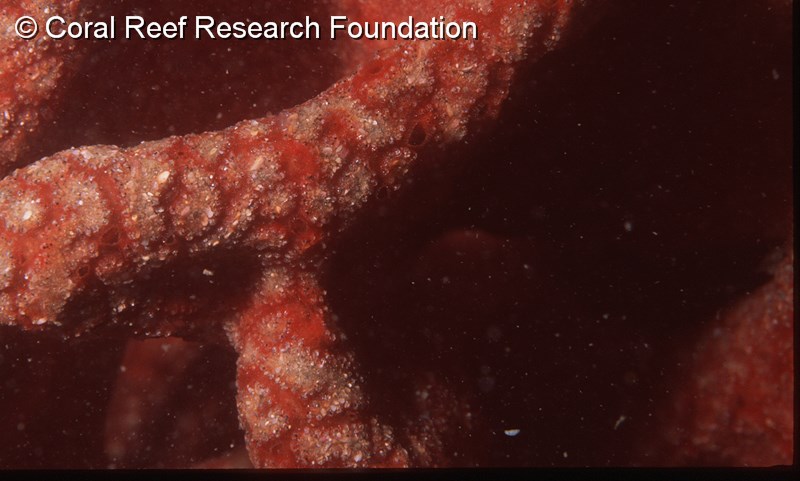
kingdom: Animalia
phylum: Chordata
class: Ascidiacea
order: Aplousobranchia
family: Polyclinidae
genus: Aplidium
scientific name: Aplidium pantherinum
